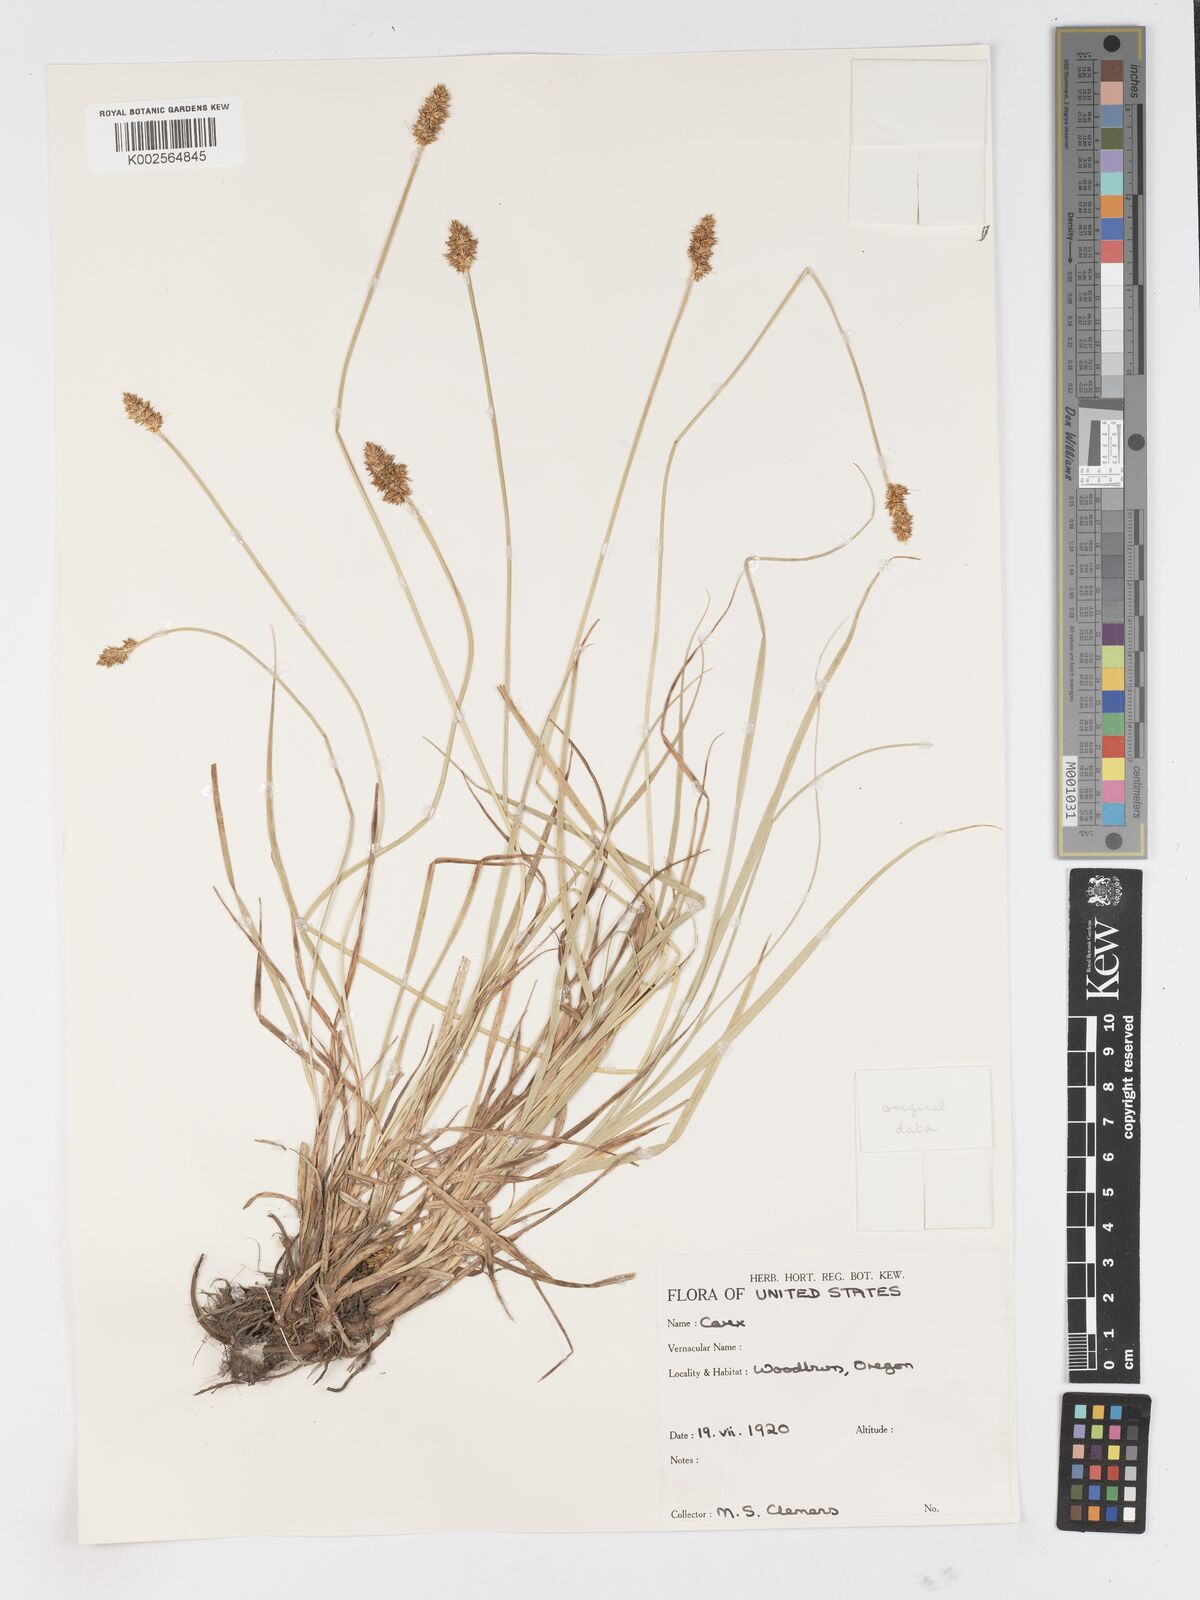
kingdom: Plantae
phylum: Tracheophyta
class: Liliopsida
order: Poales
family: Cyperaceae
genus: Carex
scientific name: Carex
